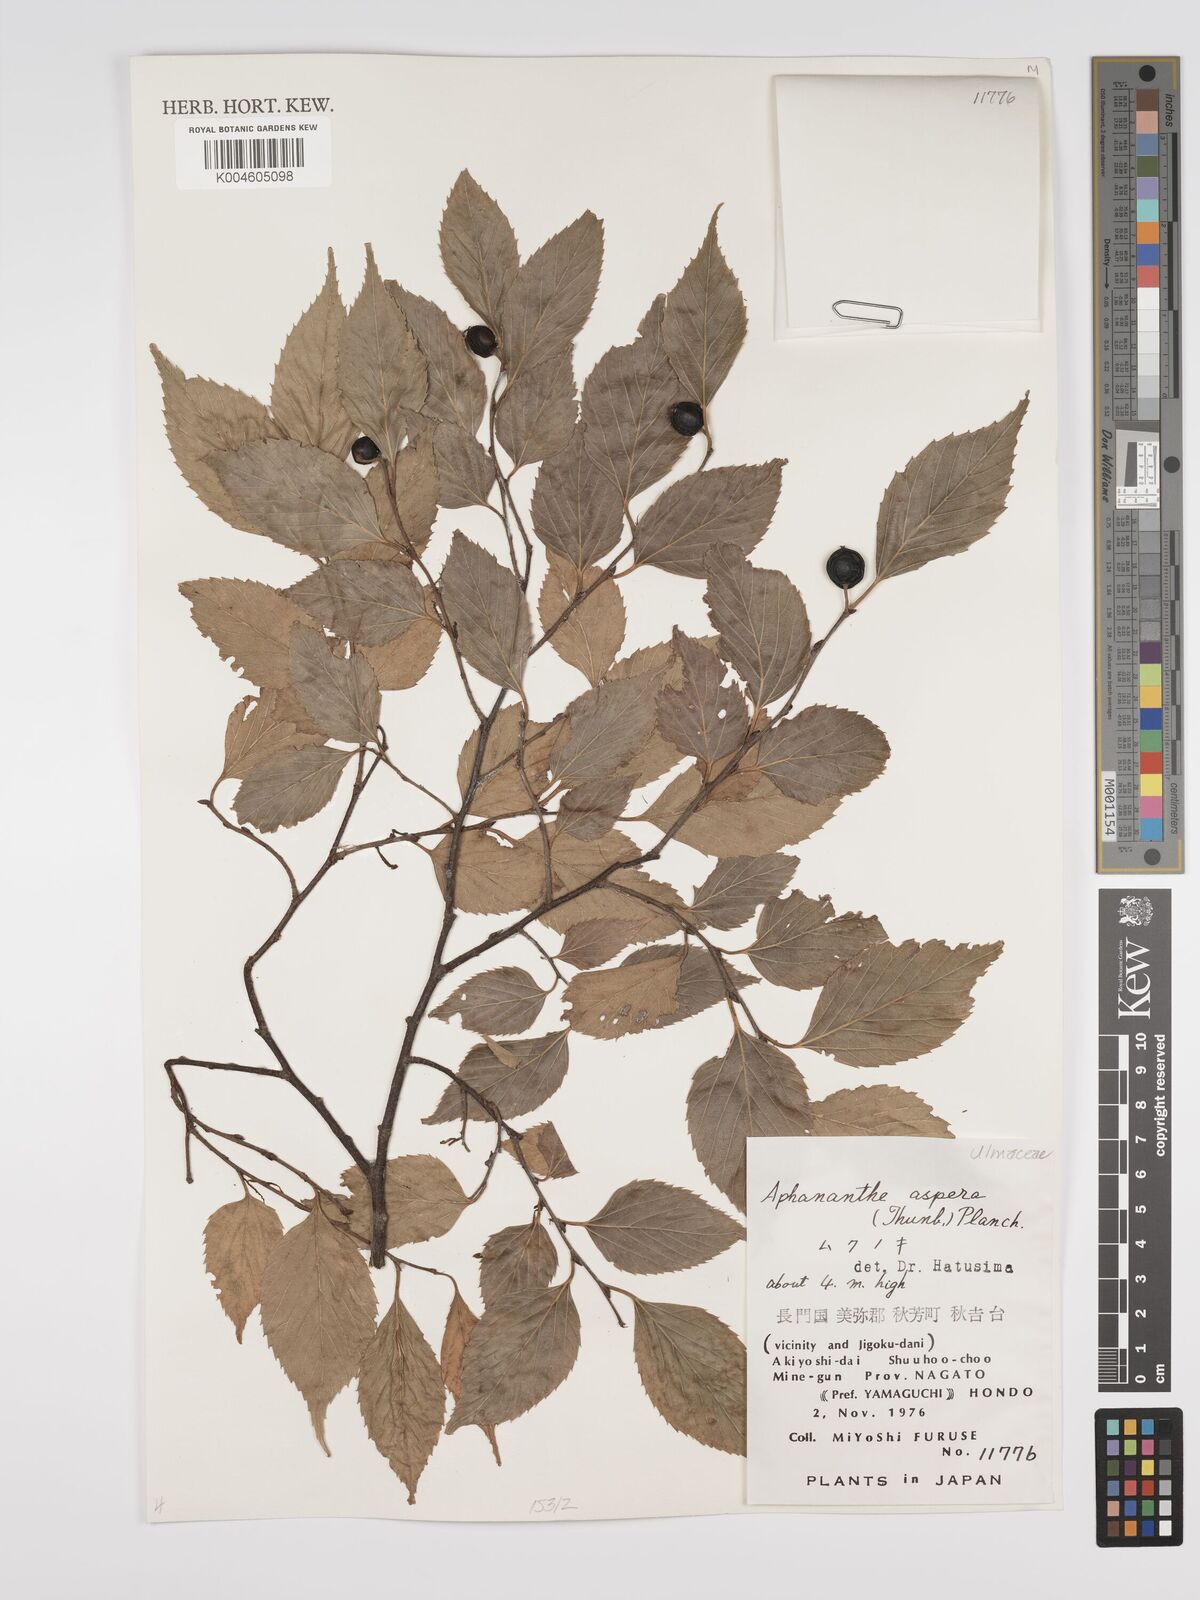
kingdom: Plantae
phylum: Tracheophyta
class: Magnoliopsida
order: Rosales
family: Cannabaceae
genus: Aphananthe
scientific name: Aphananthe aspera
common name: Mukutree
